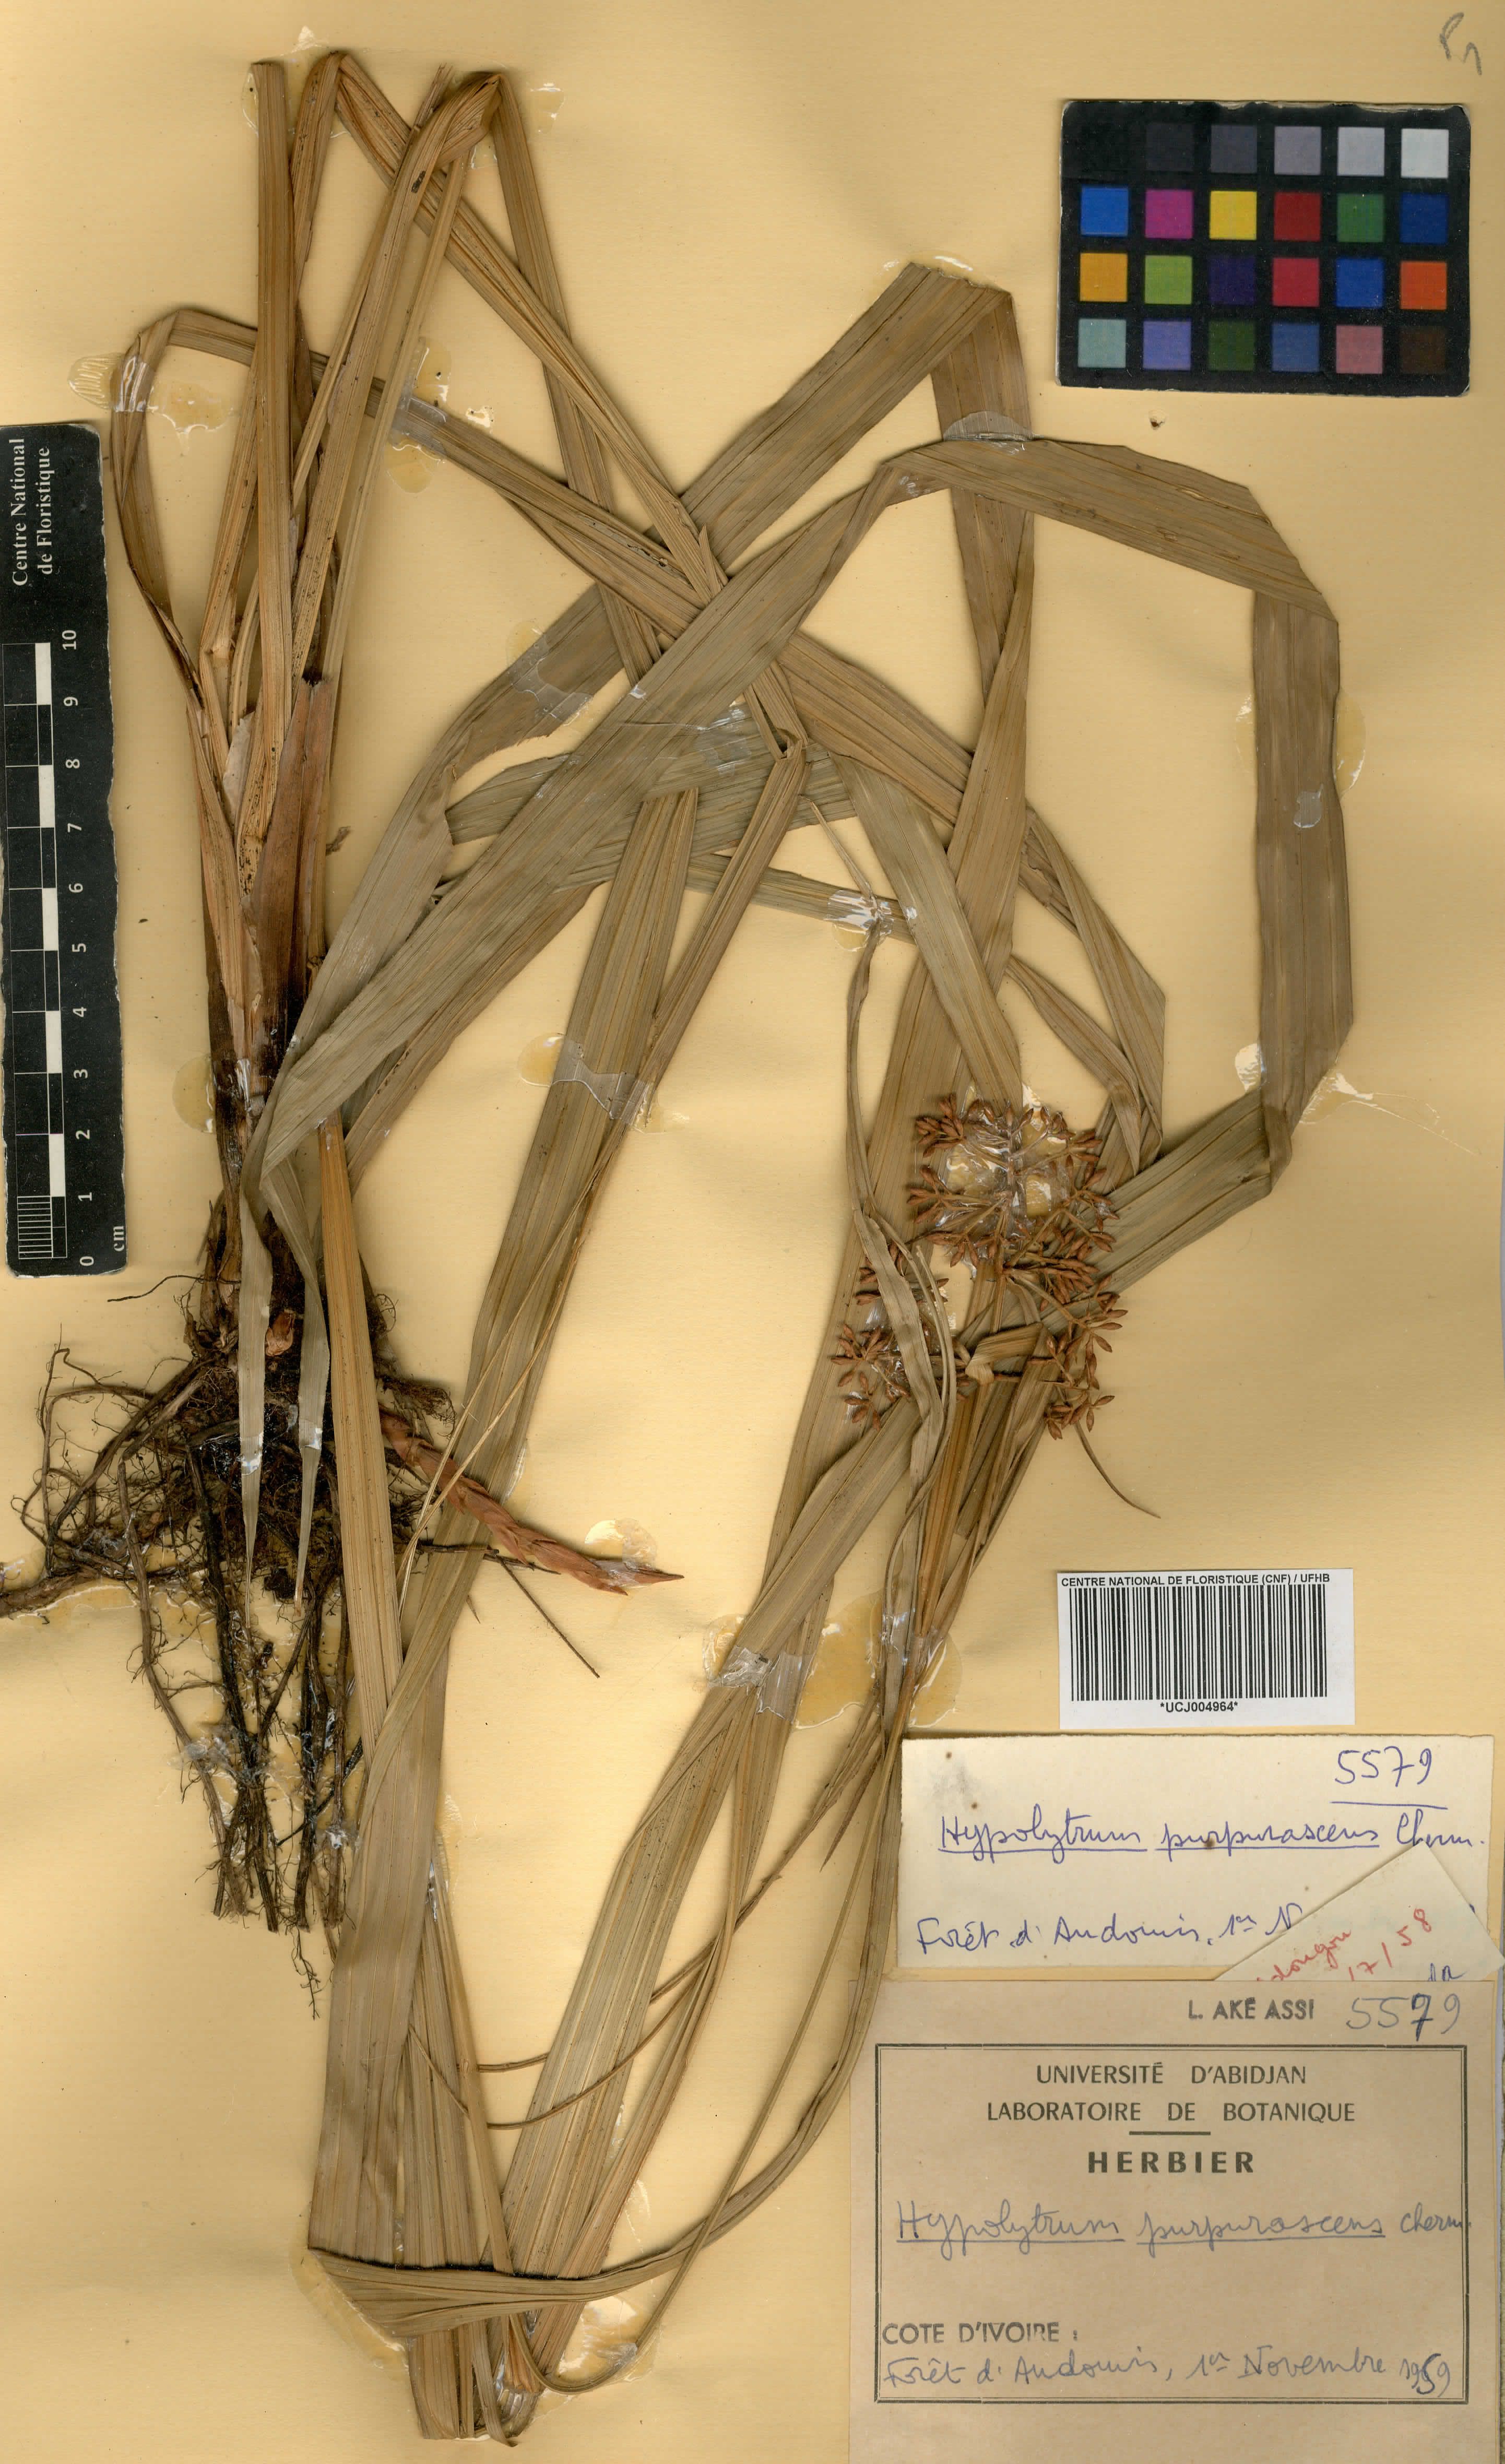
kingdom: Plantae
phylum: Tracheophyta
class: Liliopsida
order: Poales
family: Cyperaceae
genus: Hypolytrum
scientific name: Hypolytrum purpurascens
